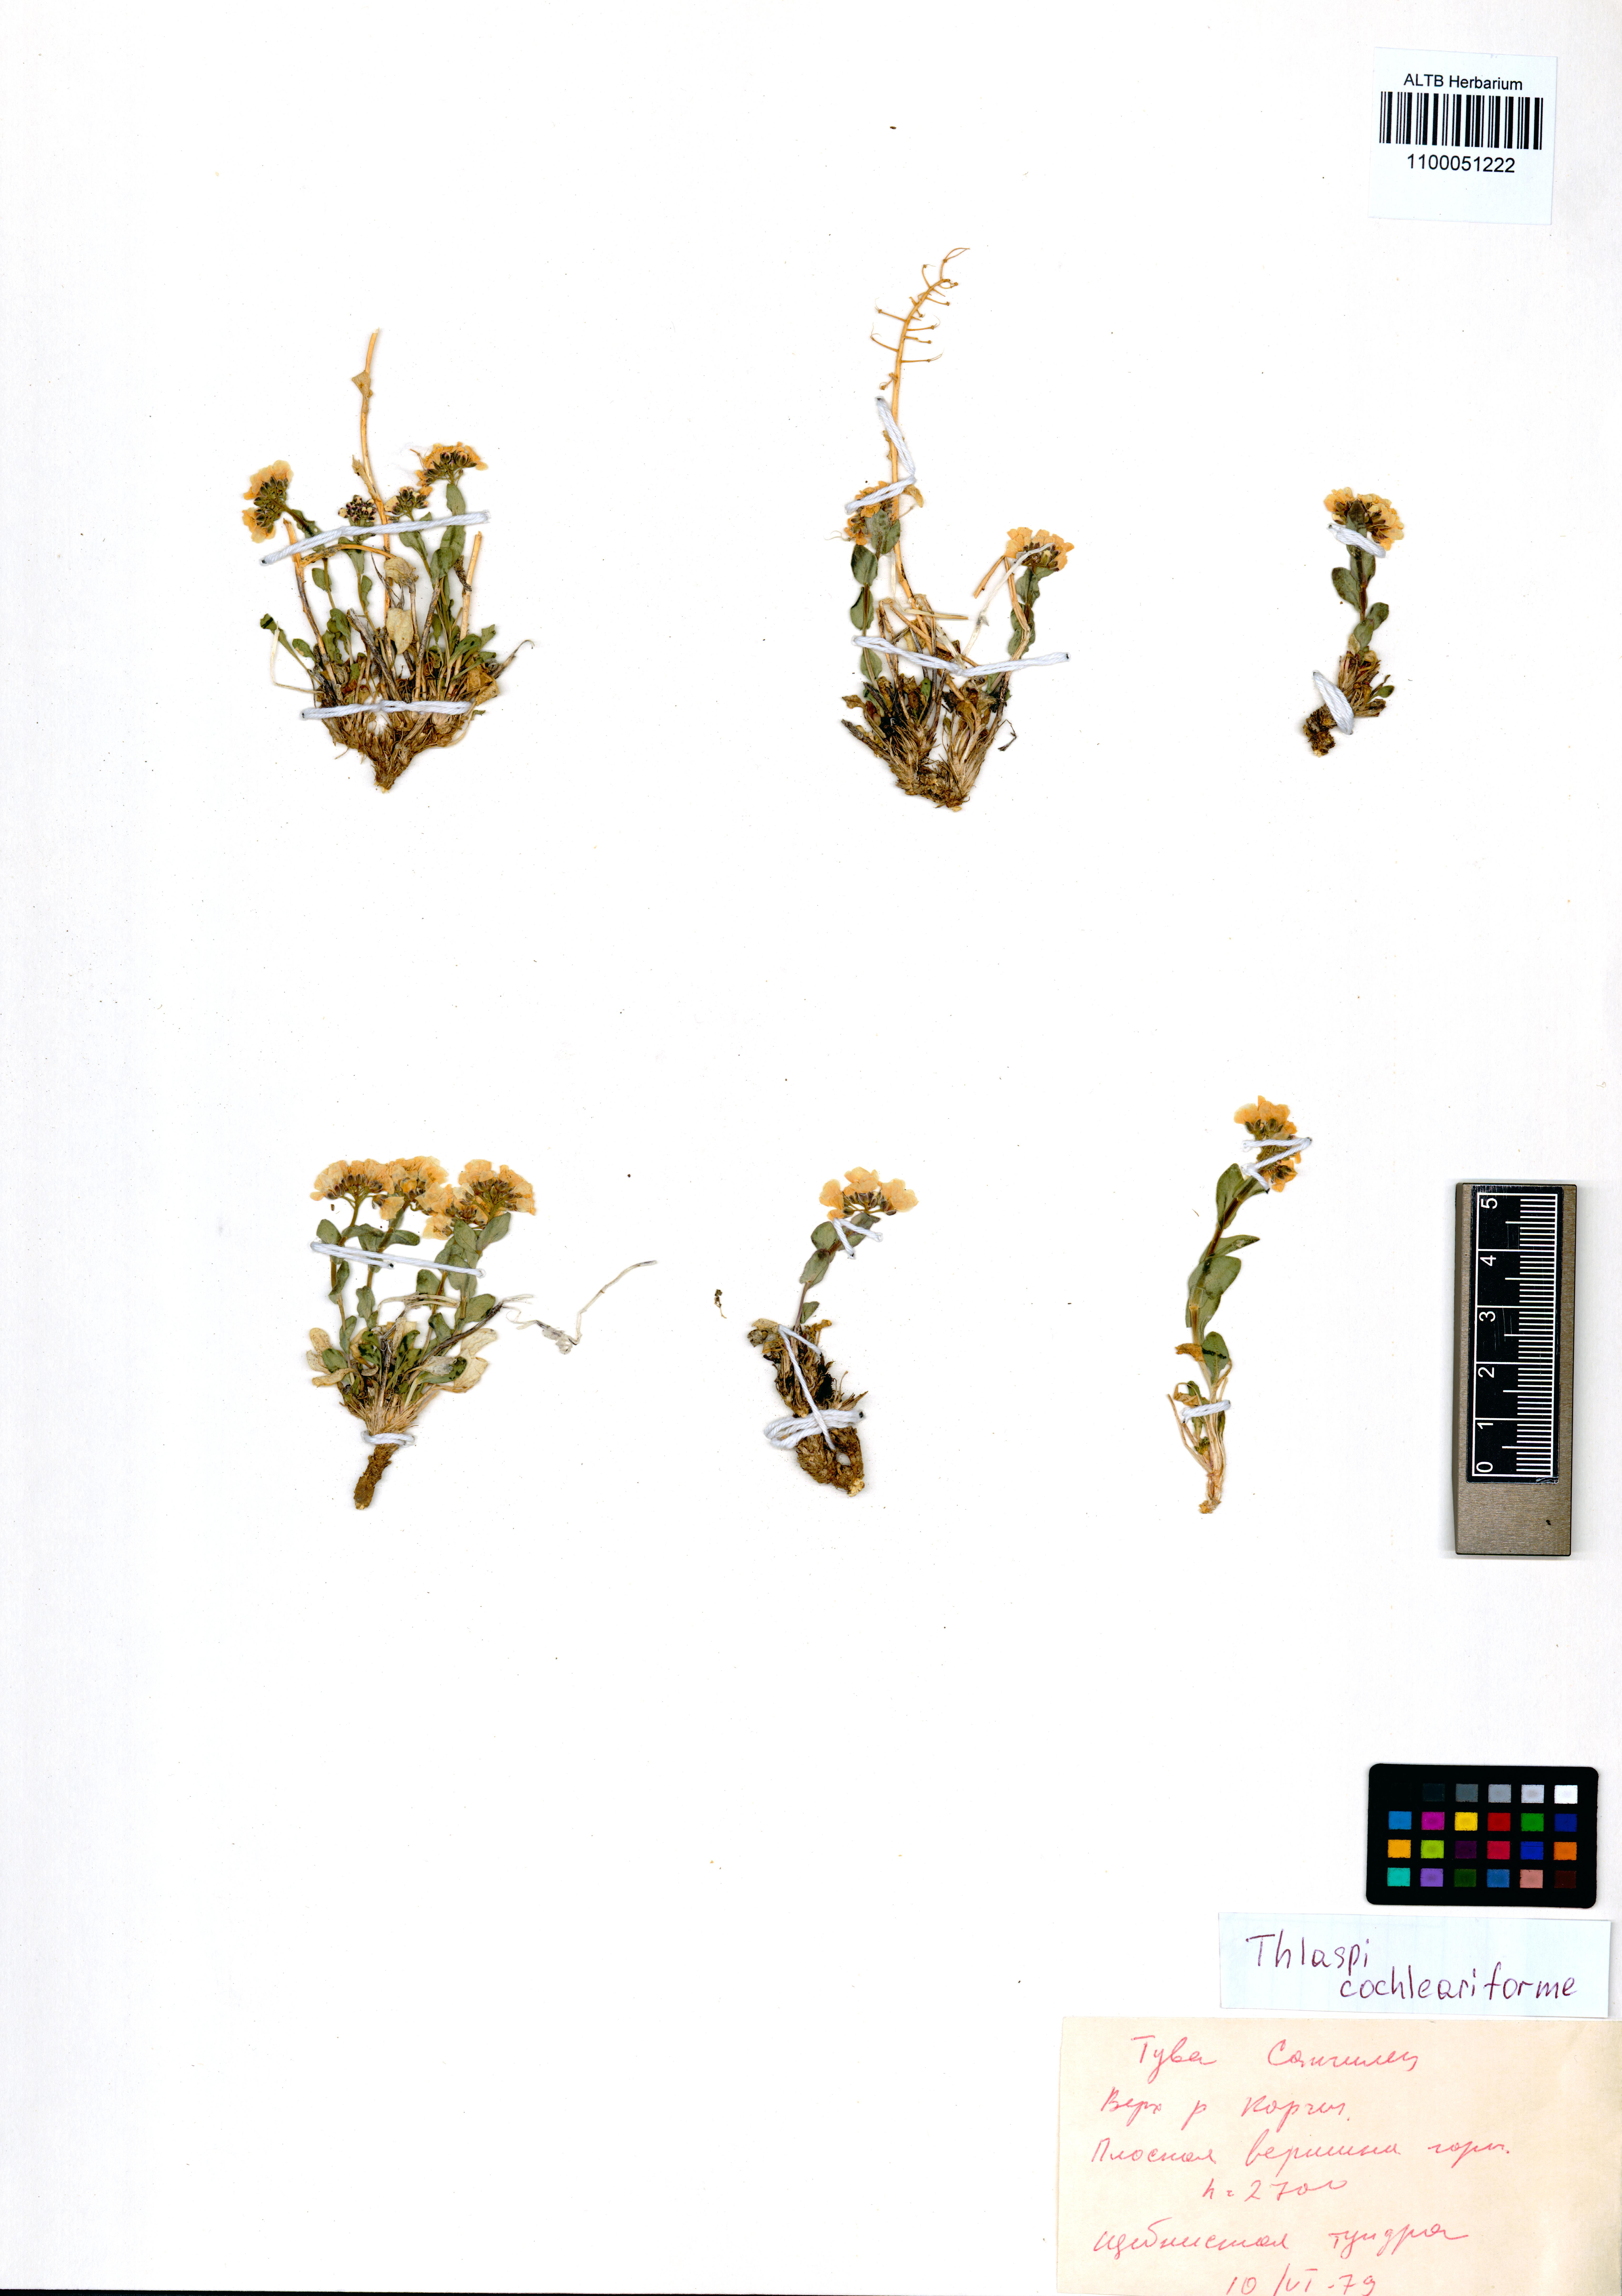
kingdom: Plantae
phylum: Tracheophyta
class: Magnoliopsida
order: Brassicales
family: Brassicaceae
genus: Noccaea
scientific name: Noccaea thlaspidioides
